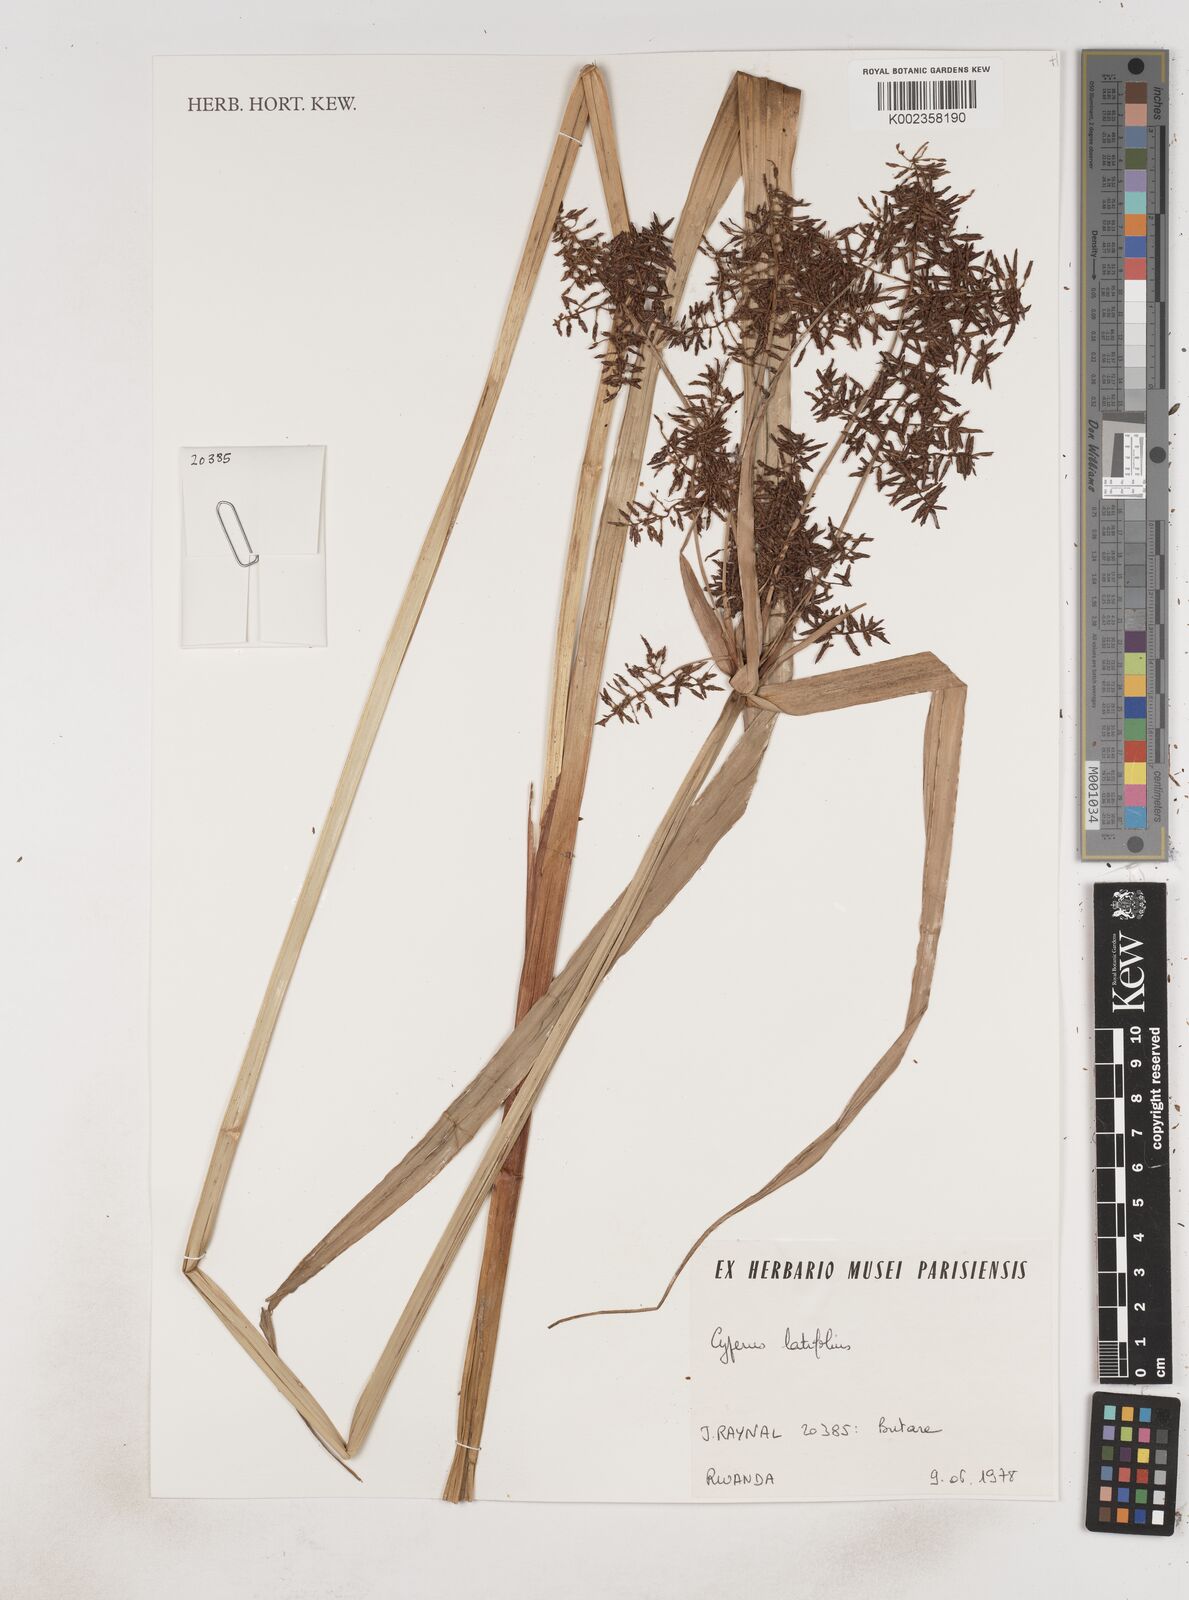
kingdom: Plantae
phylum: Tracheophyta
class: Liliopsida
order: Poales
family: Cyperaceae
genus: Cyperus
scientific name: Cyperus latifolius
